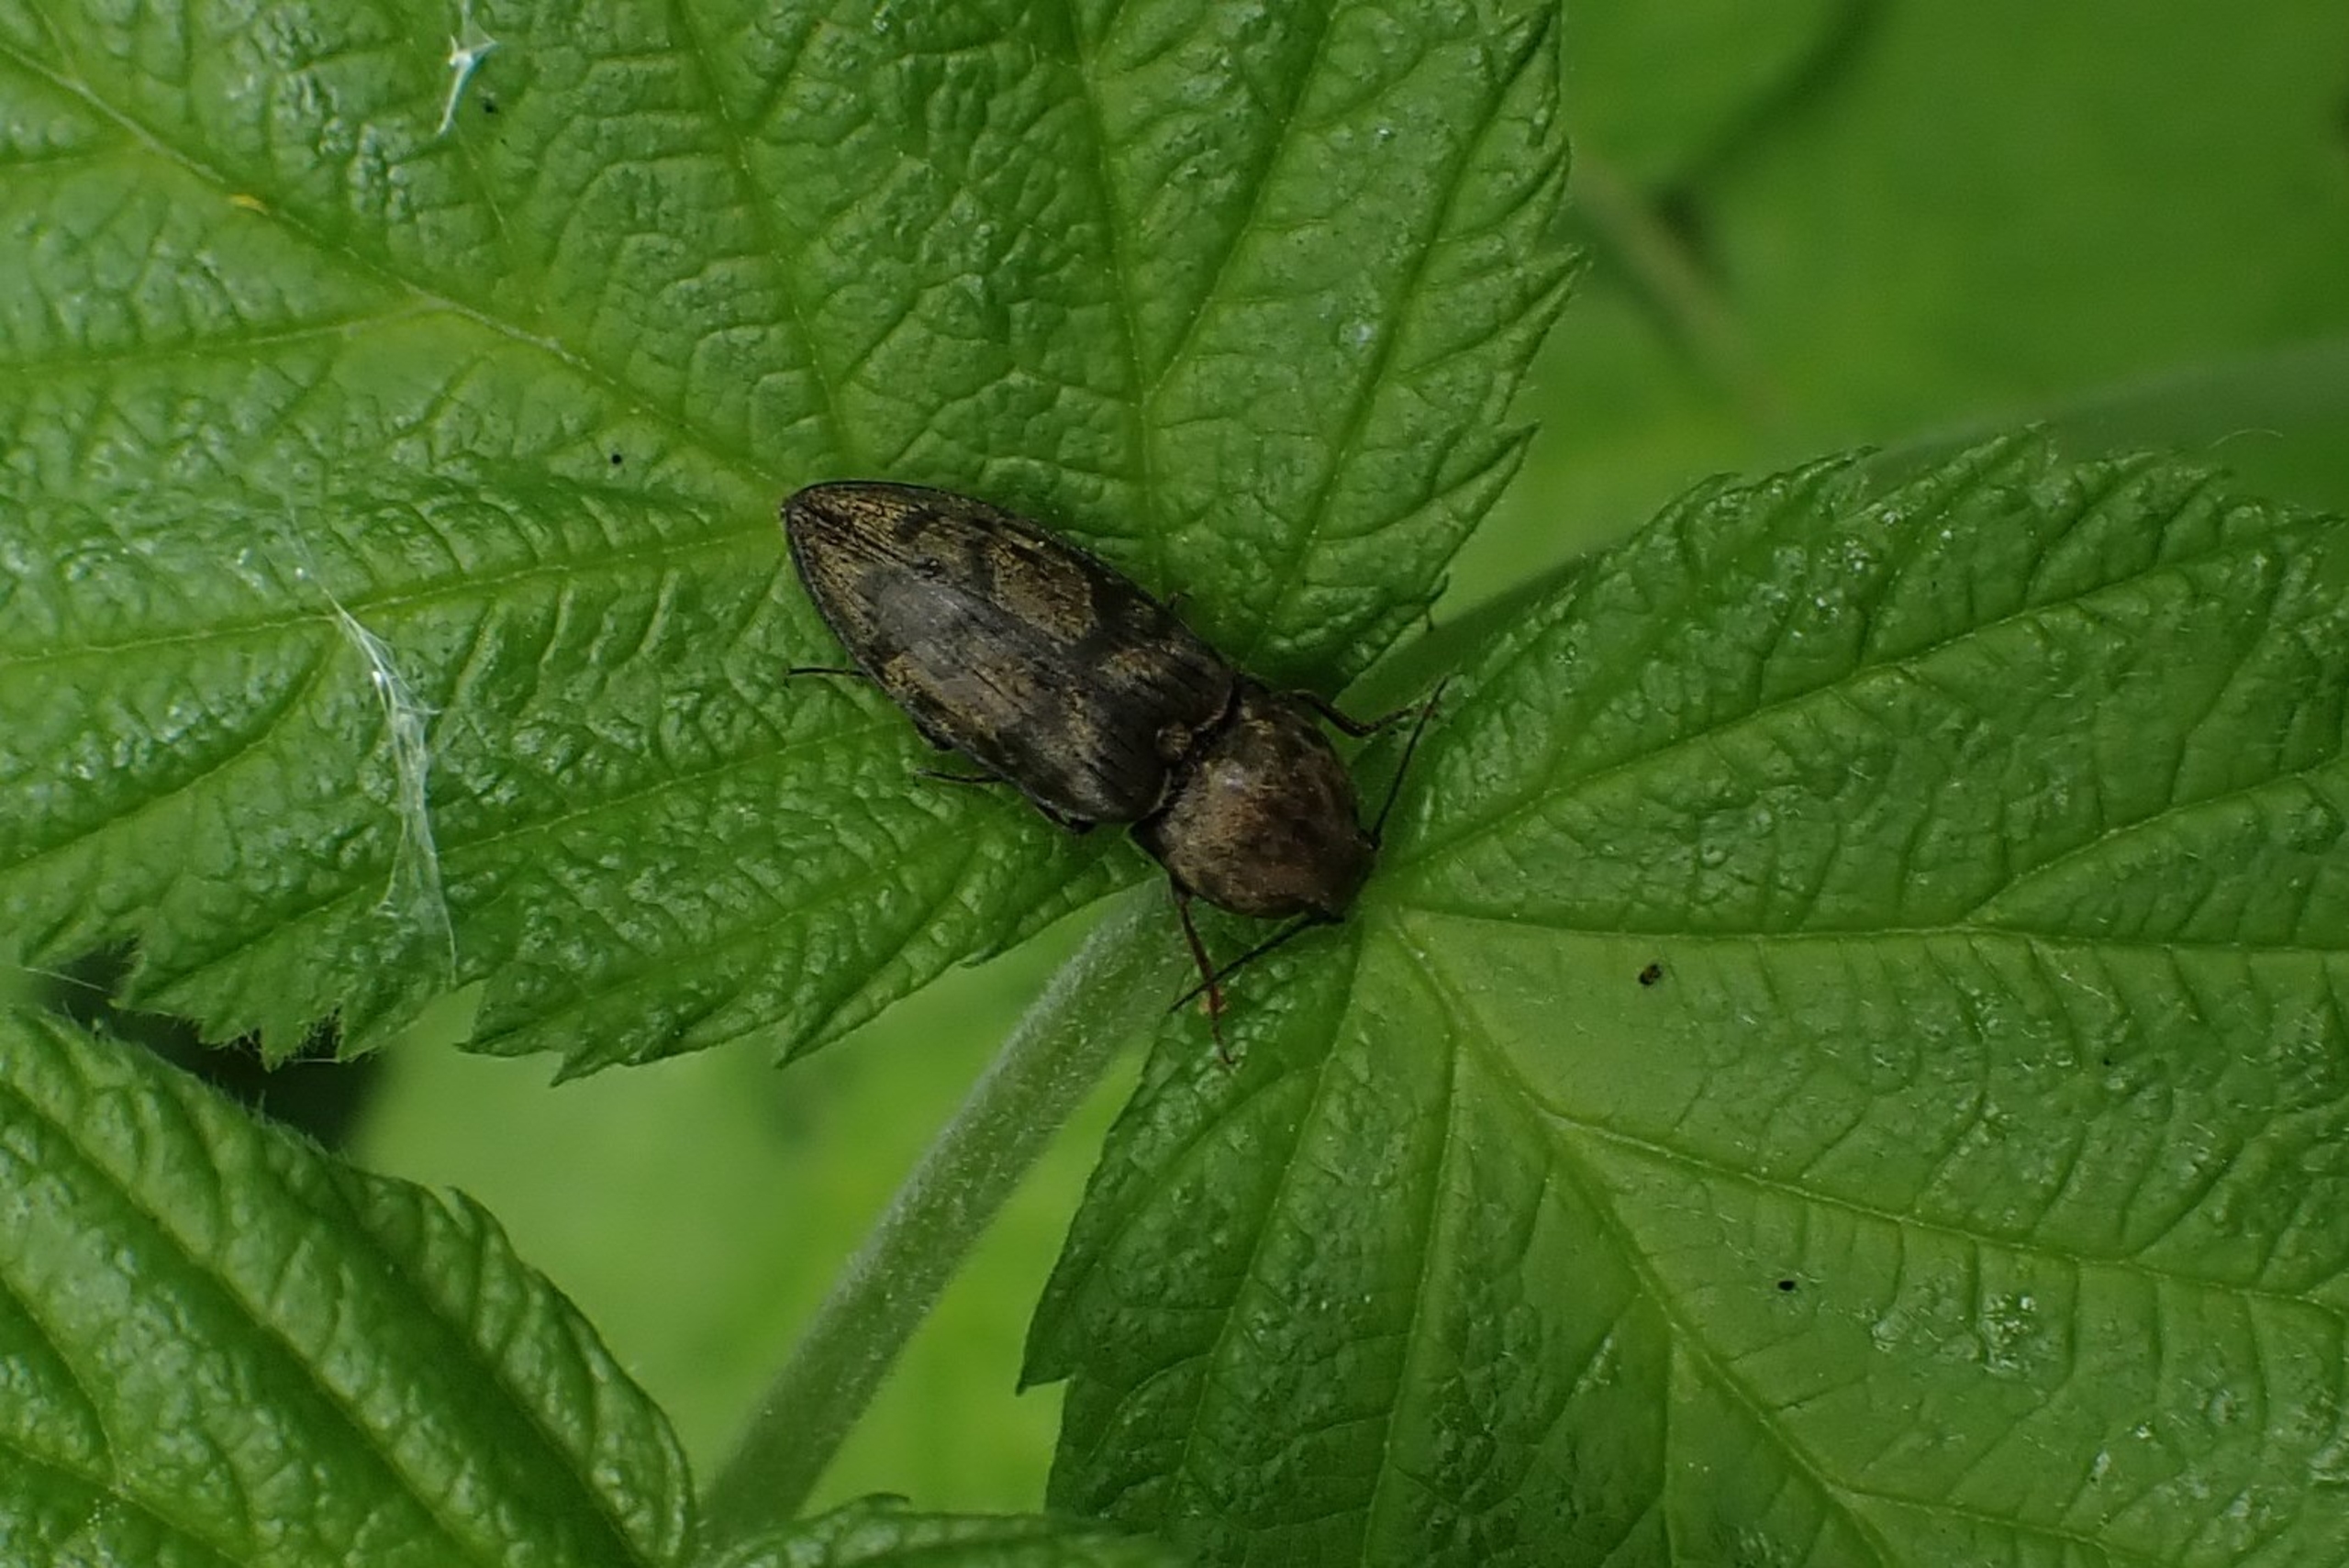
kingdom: Animalia
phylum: Arthropoda
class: Insecta
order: Coleoptera
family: Elateridae
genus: Prosternon
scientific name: Prosternon tessellatum
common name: Silkeglinsende jordsmælder
